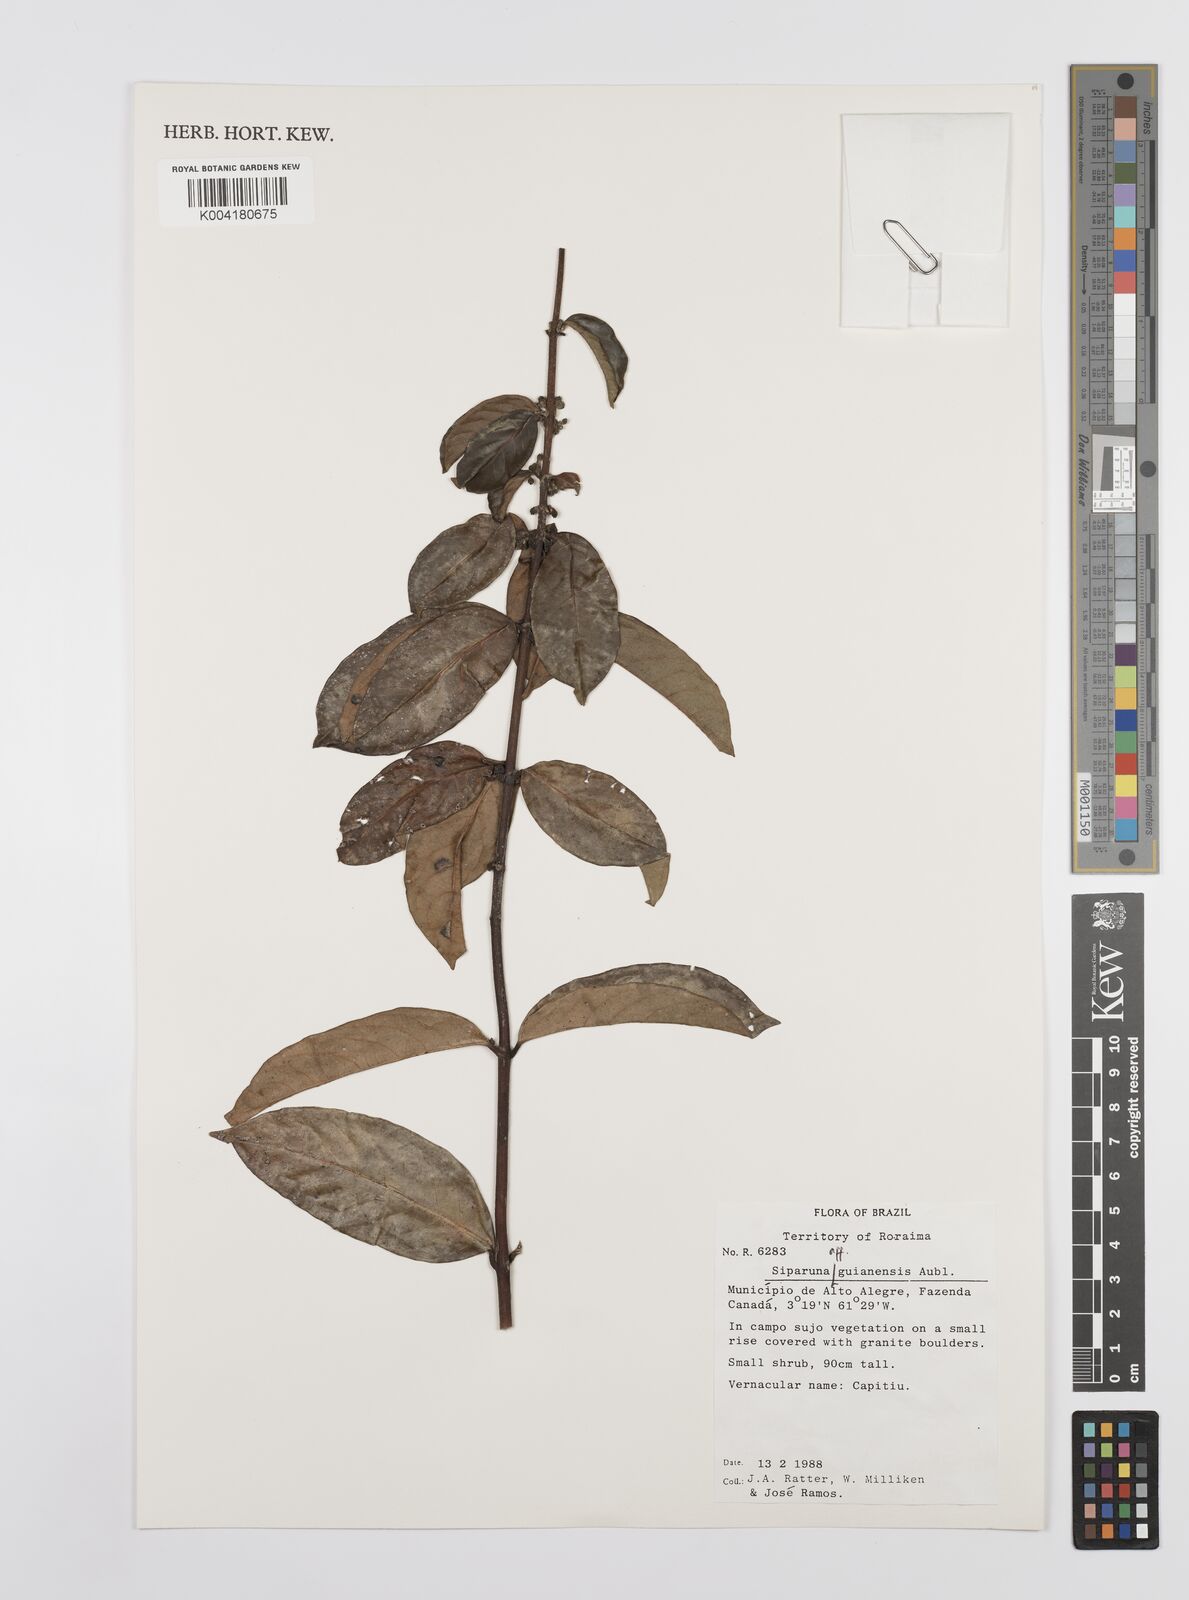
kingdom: Plantae
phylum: Tracheophyta
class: Magnoliopsida
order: Laurales
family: Siparunaceae
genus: Siparuna
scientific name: Siparuna guianensis
